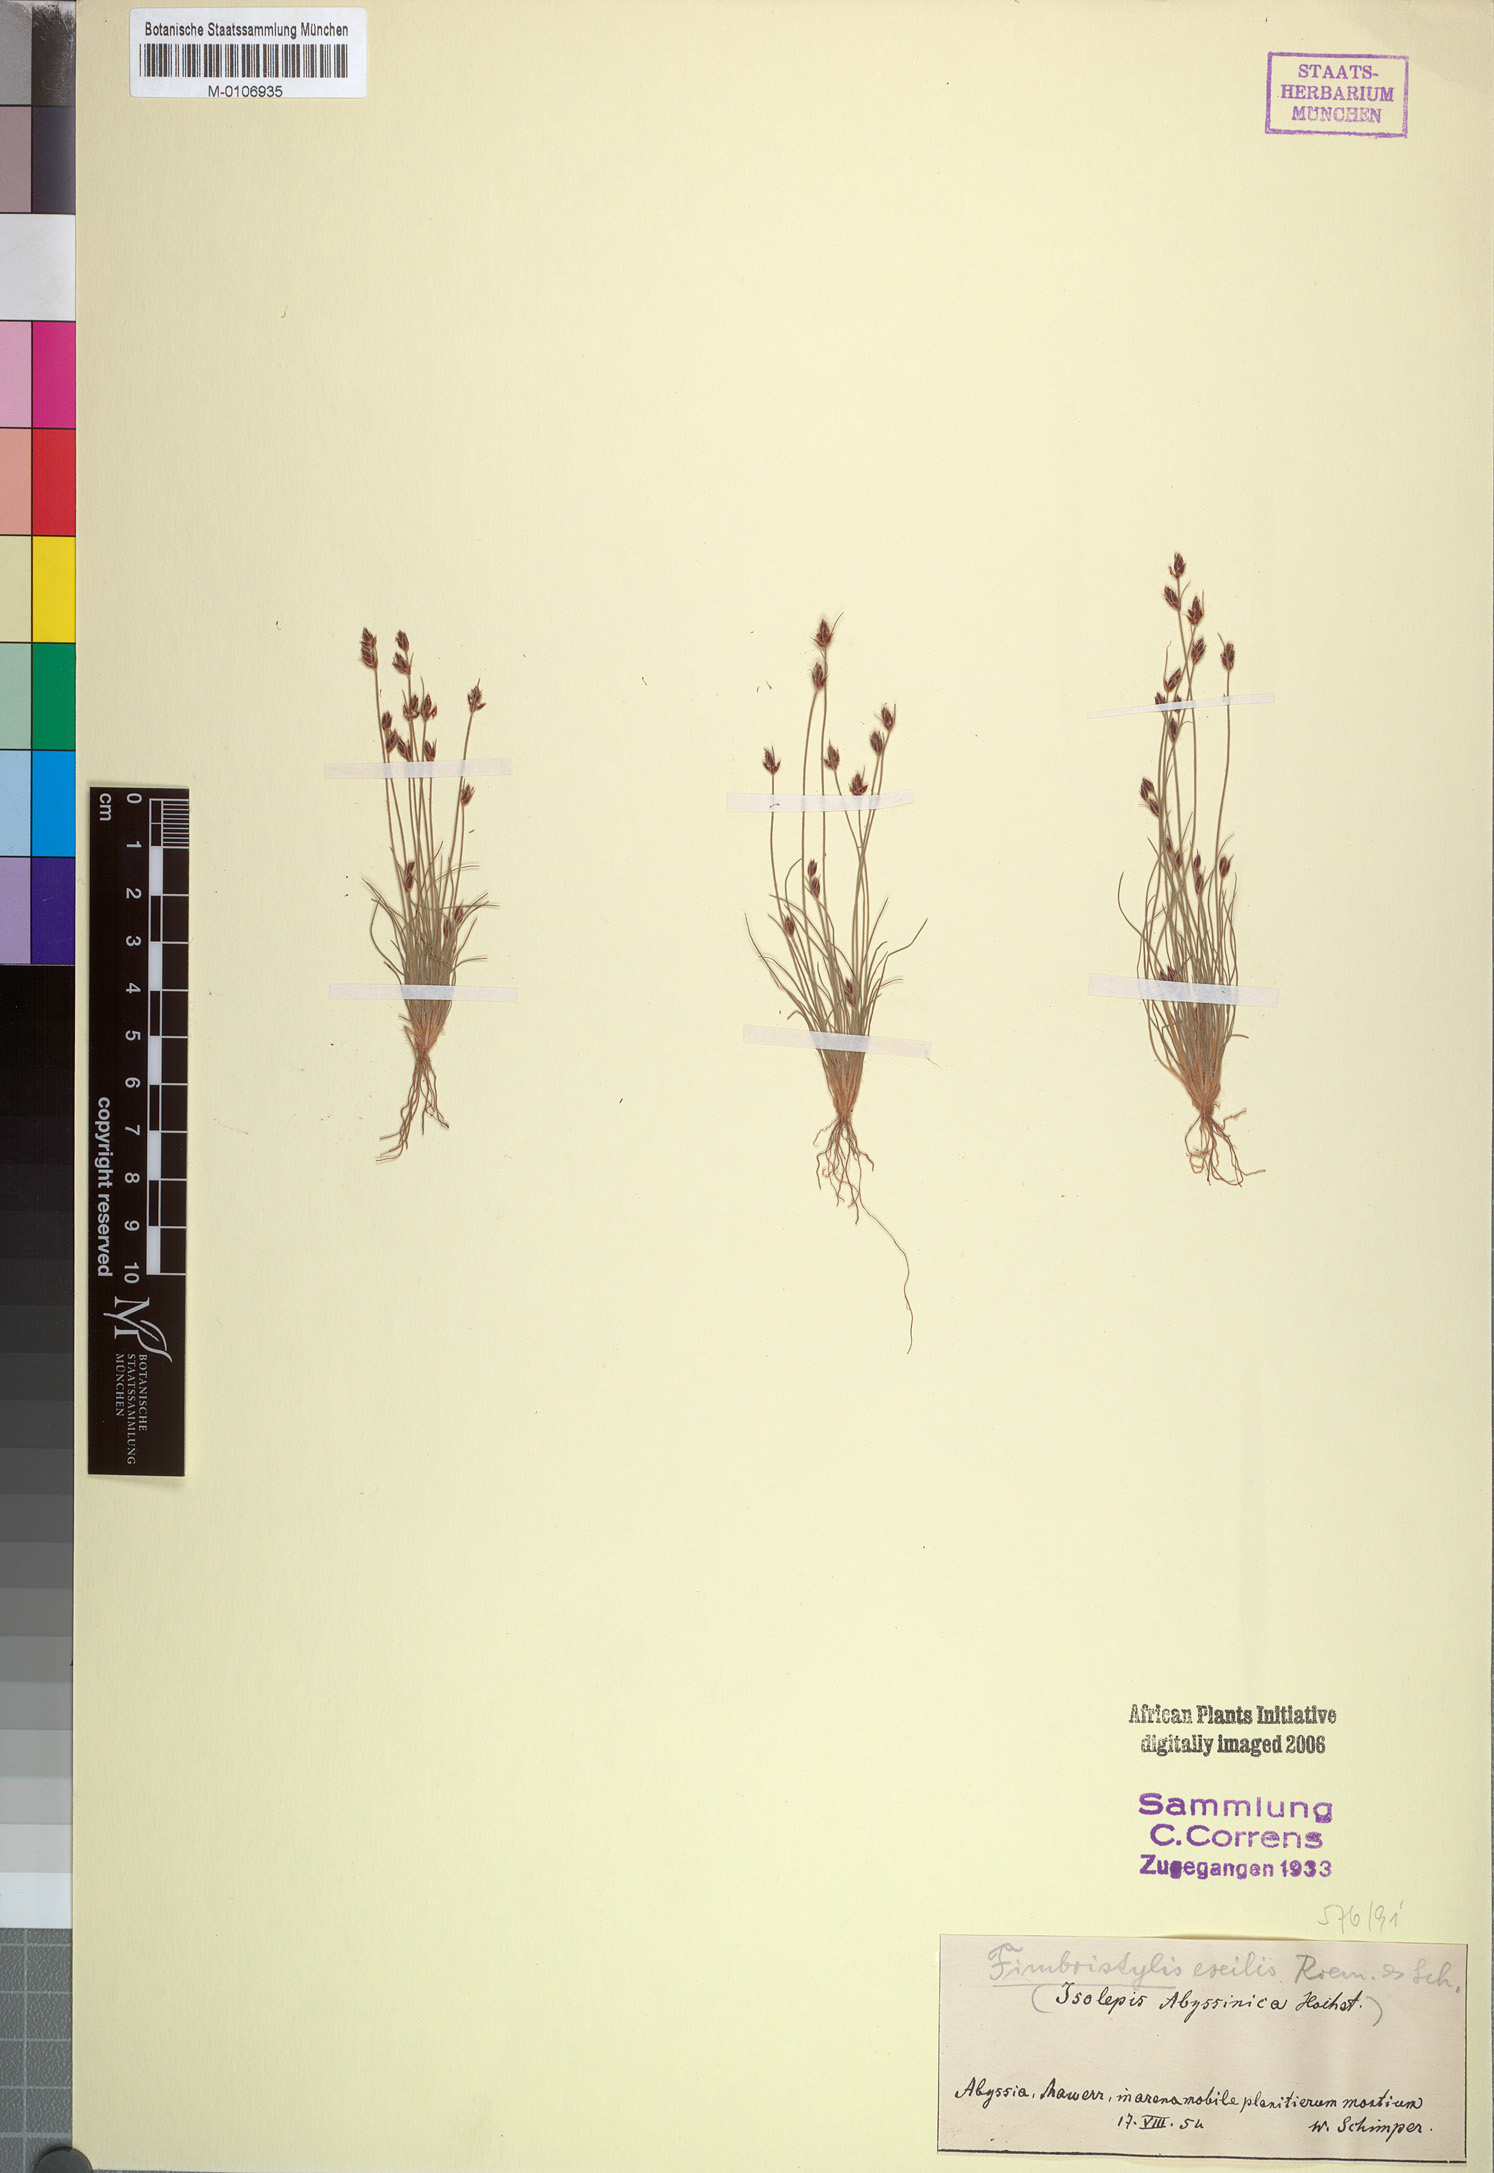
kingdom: Plantae
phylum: Tracheophyta
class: Liliopsida
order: Poales
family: Cyperaceae
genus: Bulbostylis
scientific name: Bulbostylis hispidula
